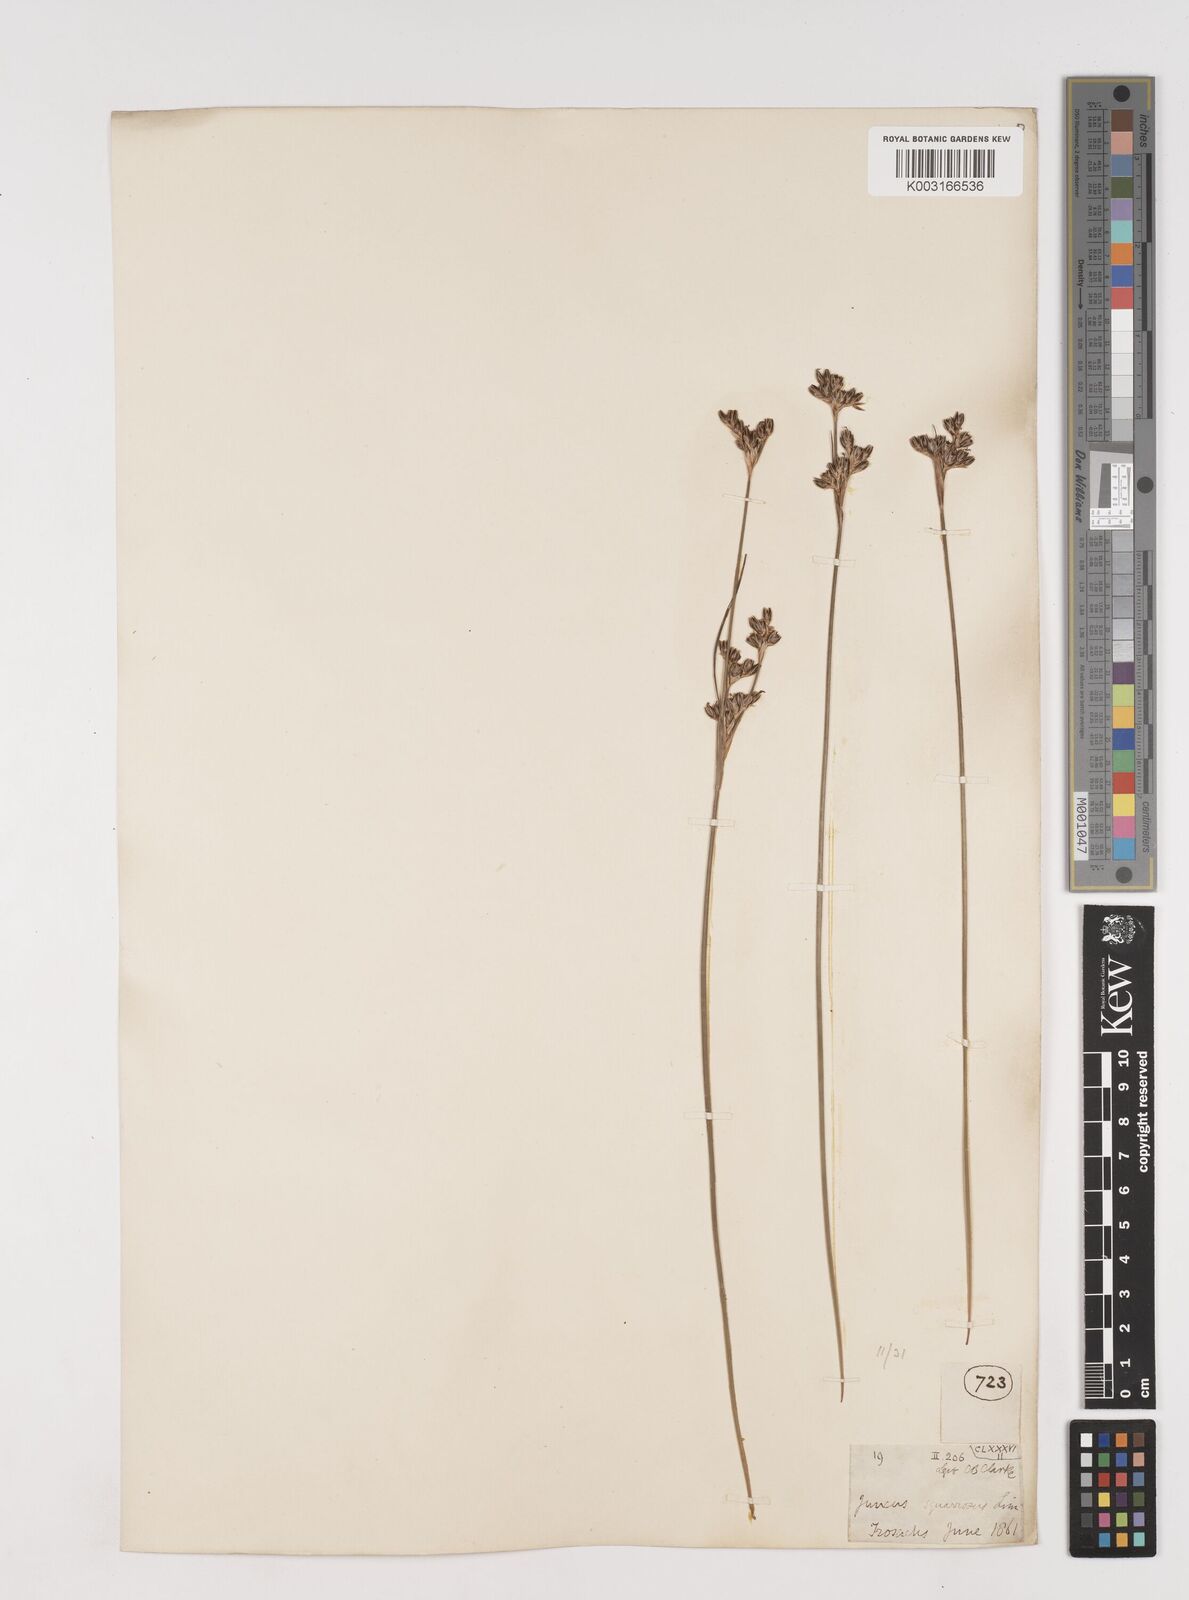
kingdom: Plantae
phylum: Tracheophyta
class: Liliopsida
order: Poales
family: Juncaceae
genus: Juncus
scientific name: Juncus squarrosus
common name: Heath rush
